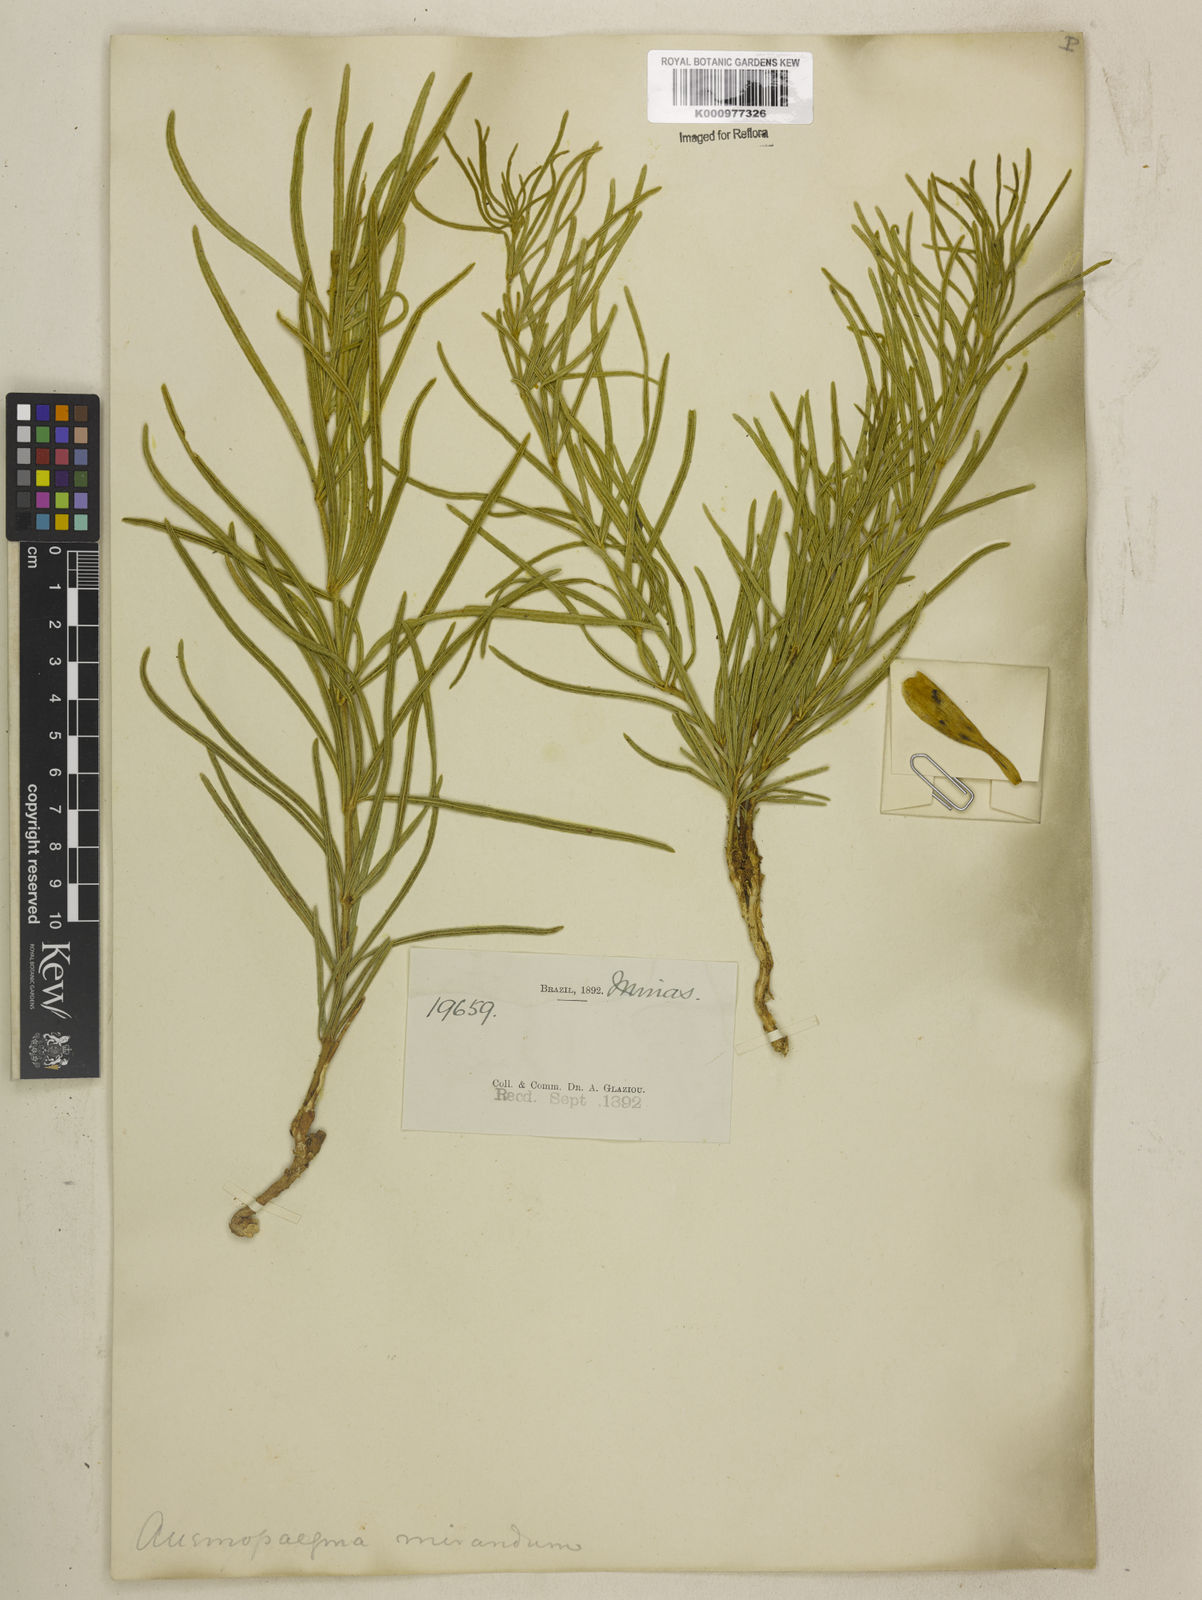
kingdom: Plantae
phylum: Tracheophyta
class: Magnoliopsida
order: Lamiales
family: Bignoniaceae
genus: Anemopaegma
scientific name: Anemopaegma arvense
